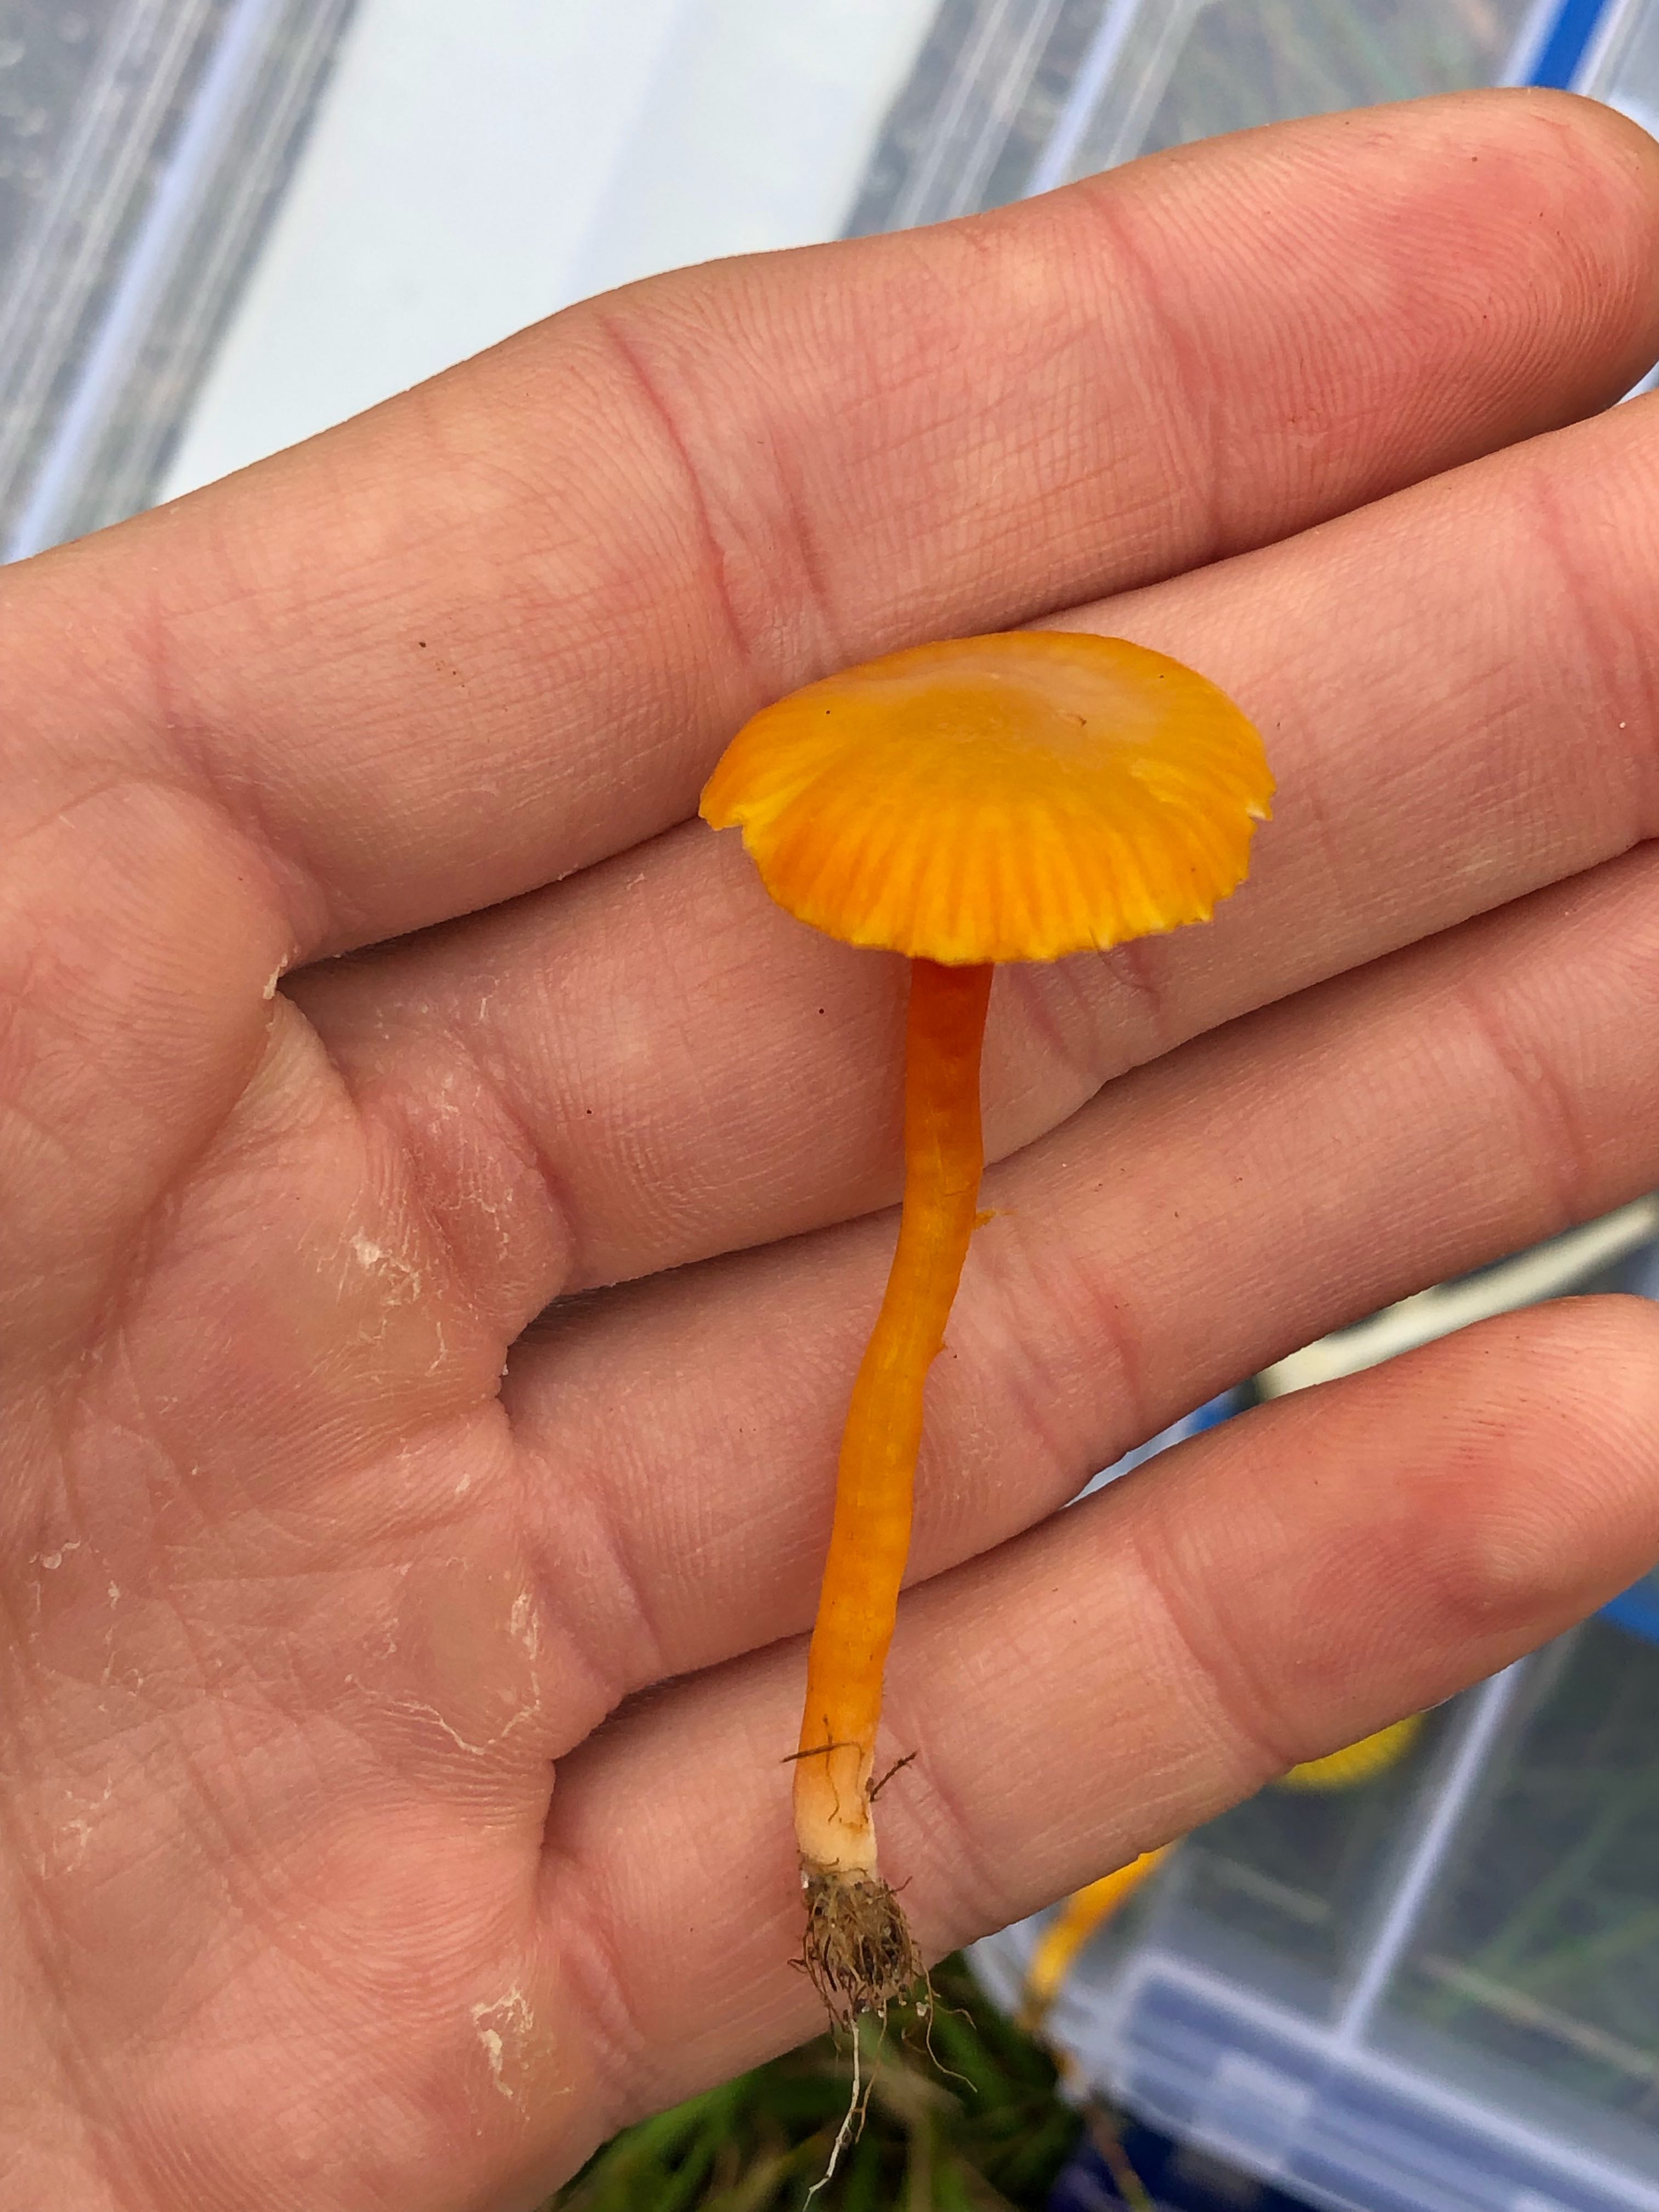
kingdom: Fungi
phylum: Basidiomycota
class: Agaricomycetes
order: Agaricales
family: Hygrophoraceae
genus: Hygrocybe
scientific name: Hygrocybe insipida
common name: liden vokshat
